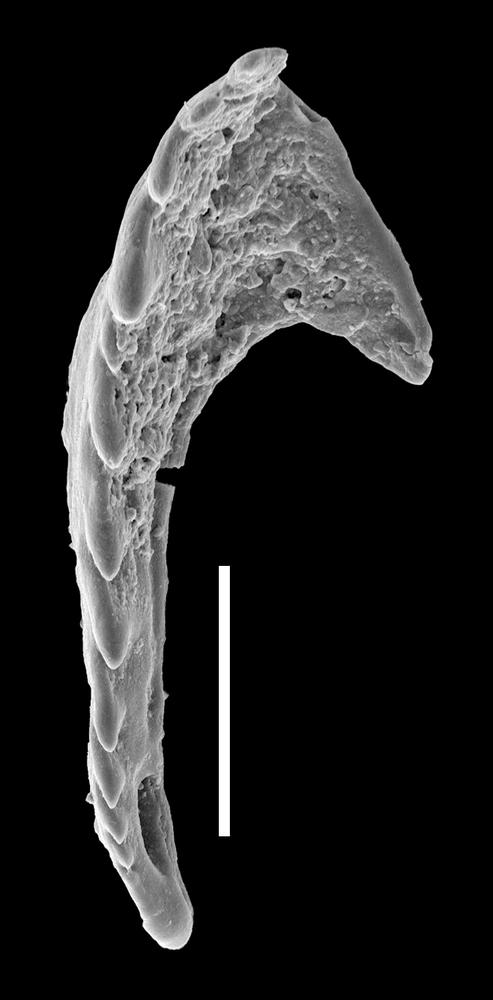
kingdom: Animalia
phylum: Annelida
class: Polychaeta
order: Eunicida
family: Paulinitidae
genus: Kettnerites
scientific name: Kettnerites
